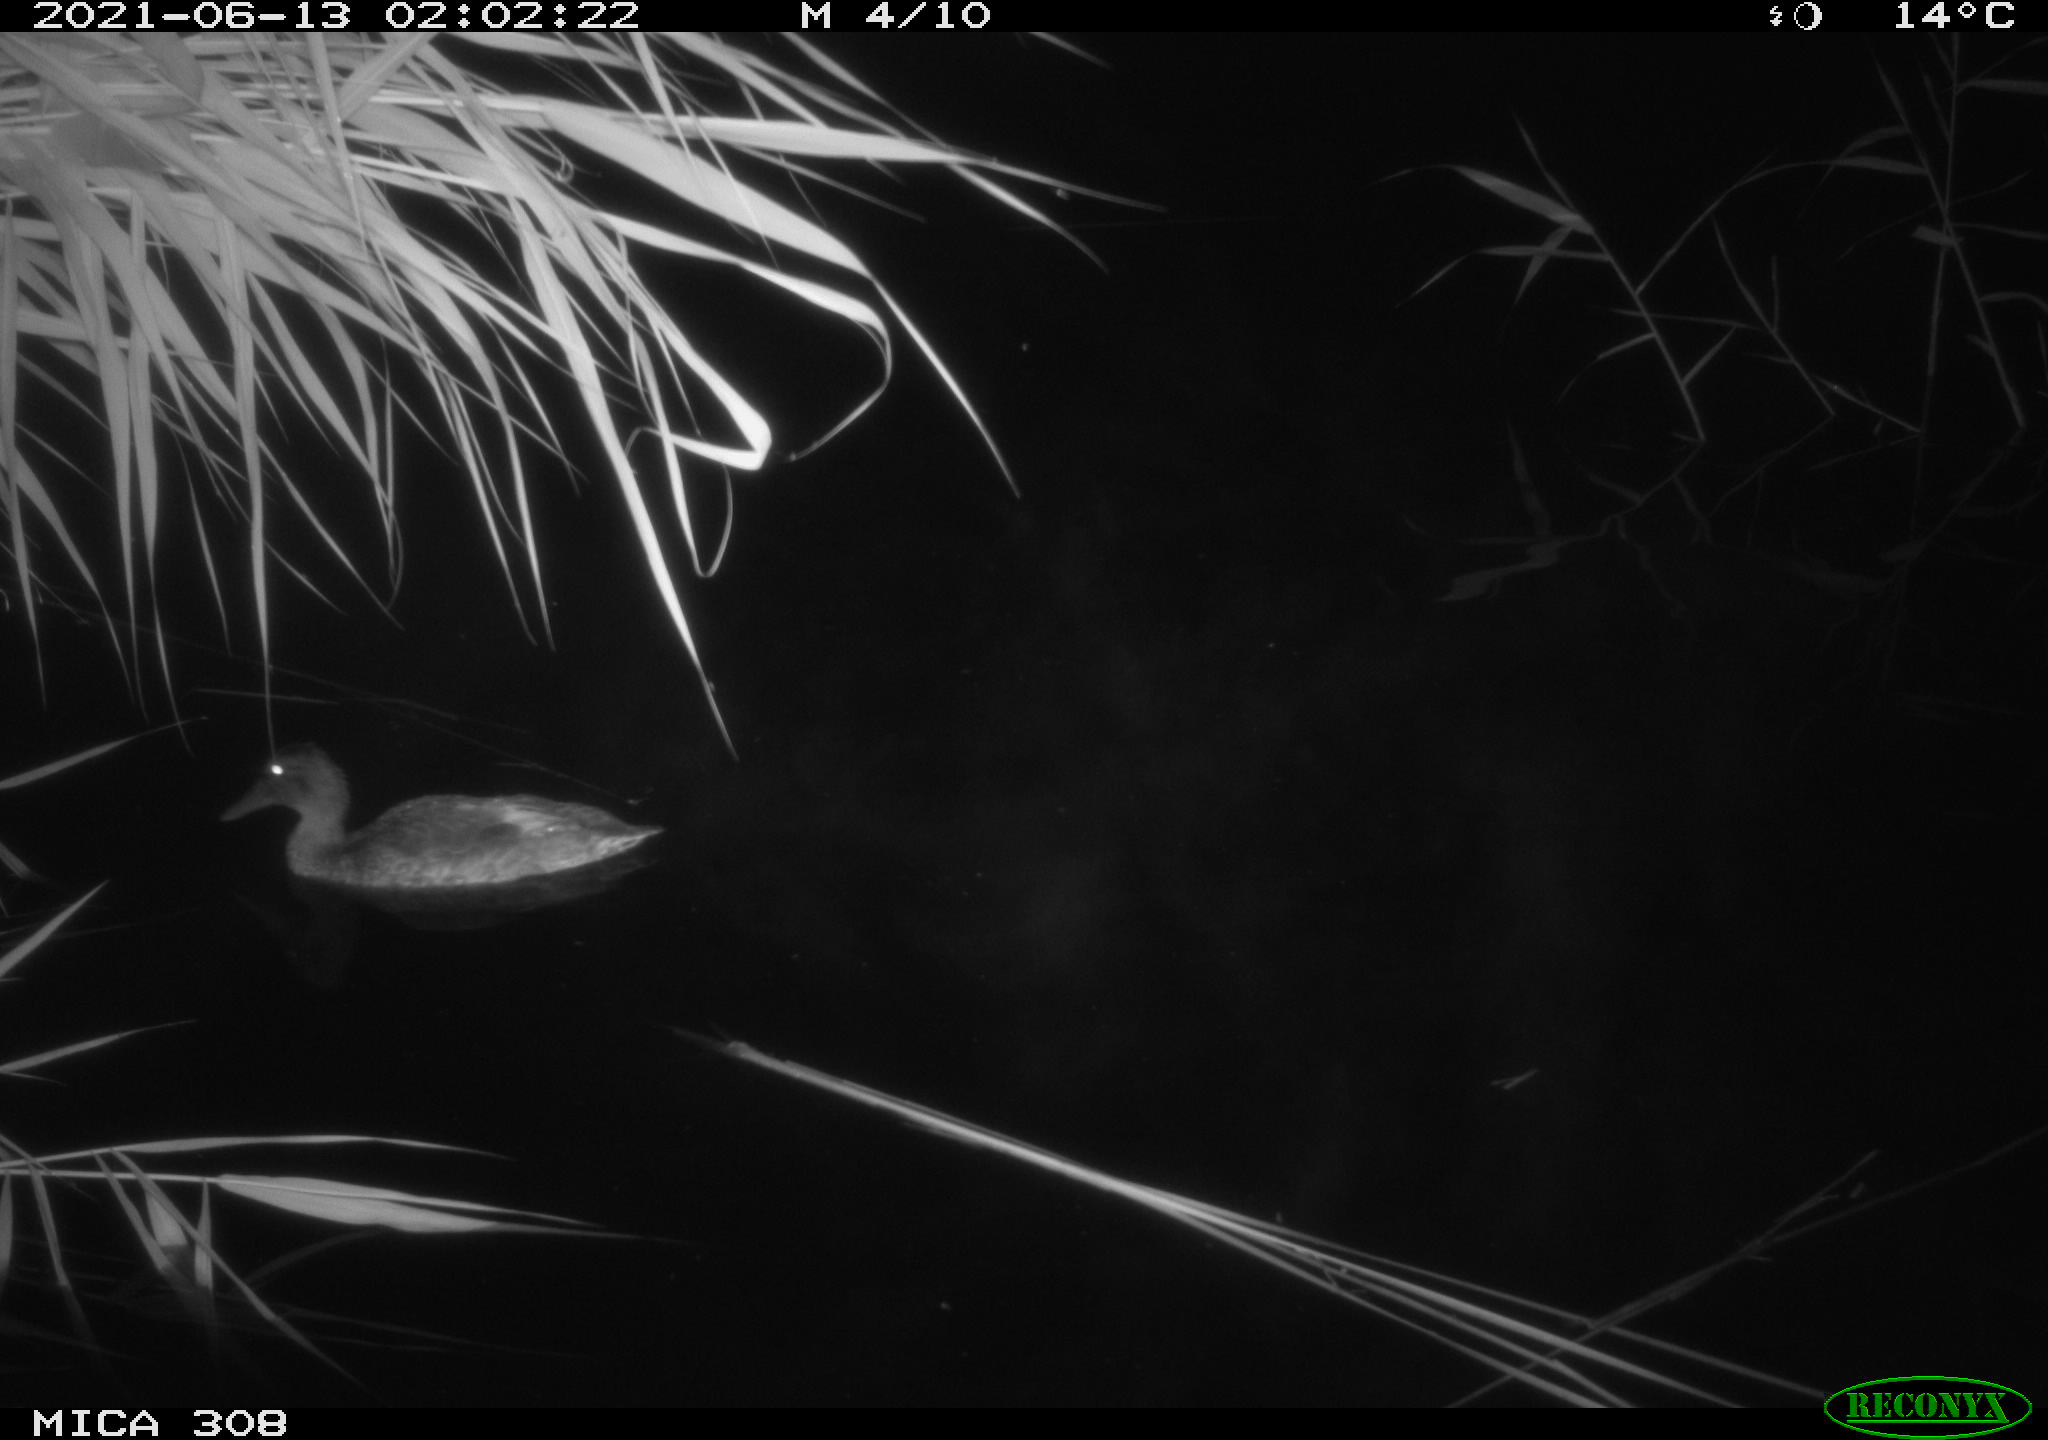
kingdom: Animalia
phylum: Chordata
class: Aves
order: Anseriformes
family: Anatidae
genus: Anas
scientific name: Anas platyrhynchos
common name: Mallard
